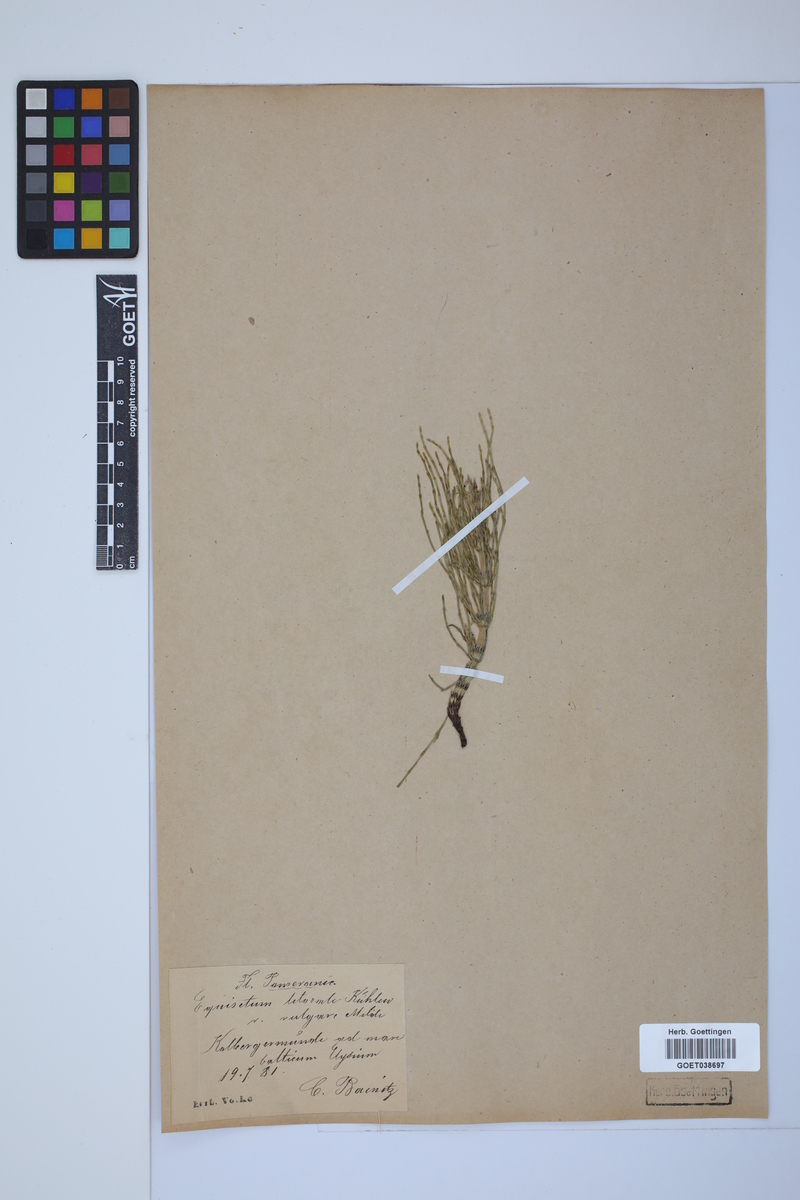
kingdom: Plantae
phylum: Tracheophyta
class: Polypodiopsida
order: Equisetales
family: Equisetaceae
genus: Equisetum
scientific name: Equisetum litorale
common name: Littoral horsetail
